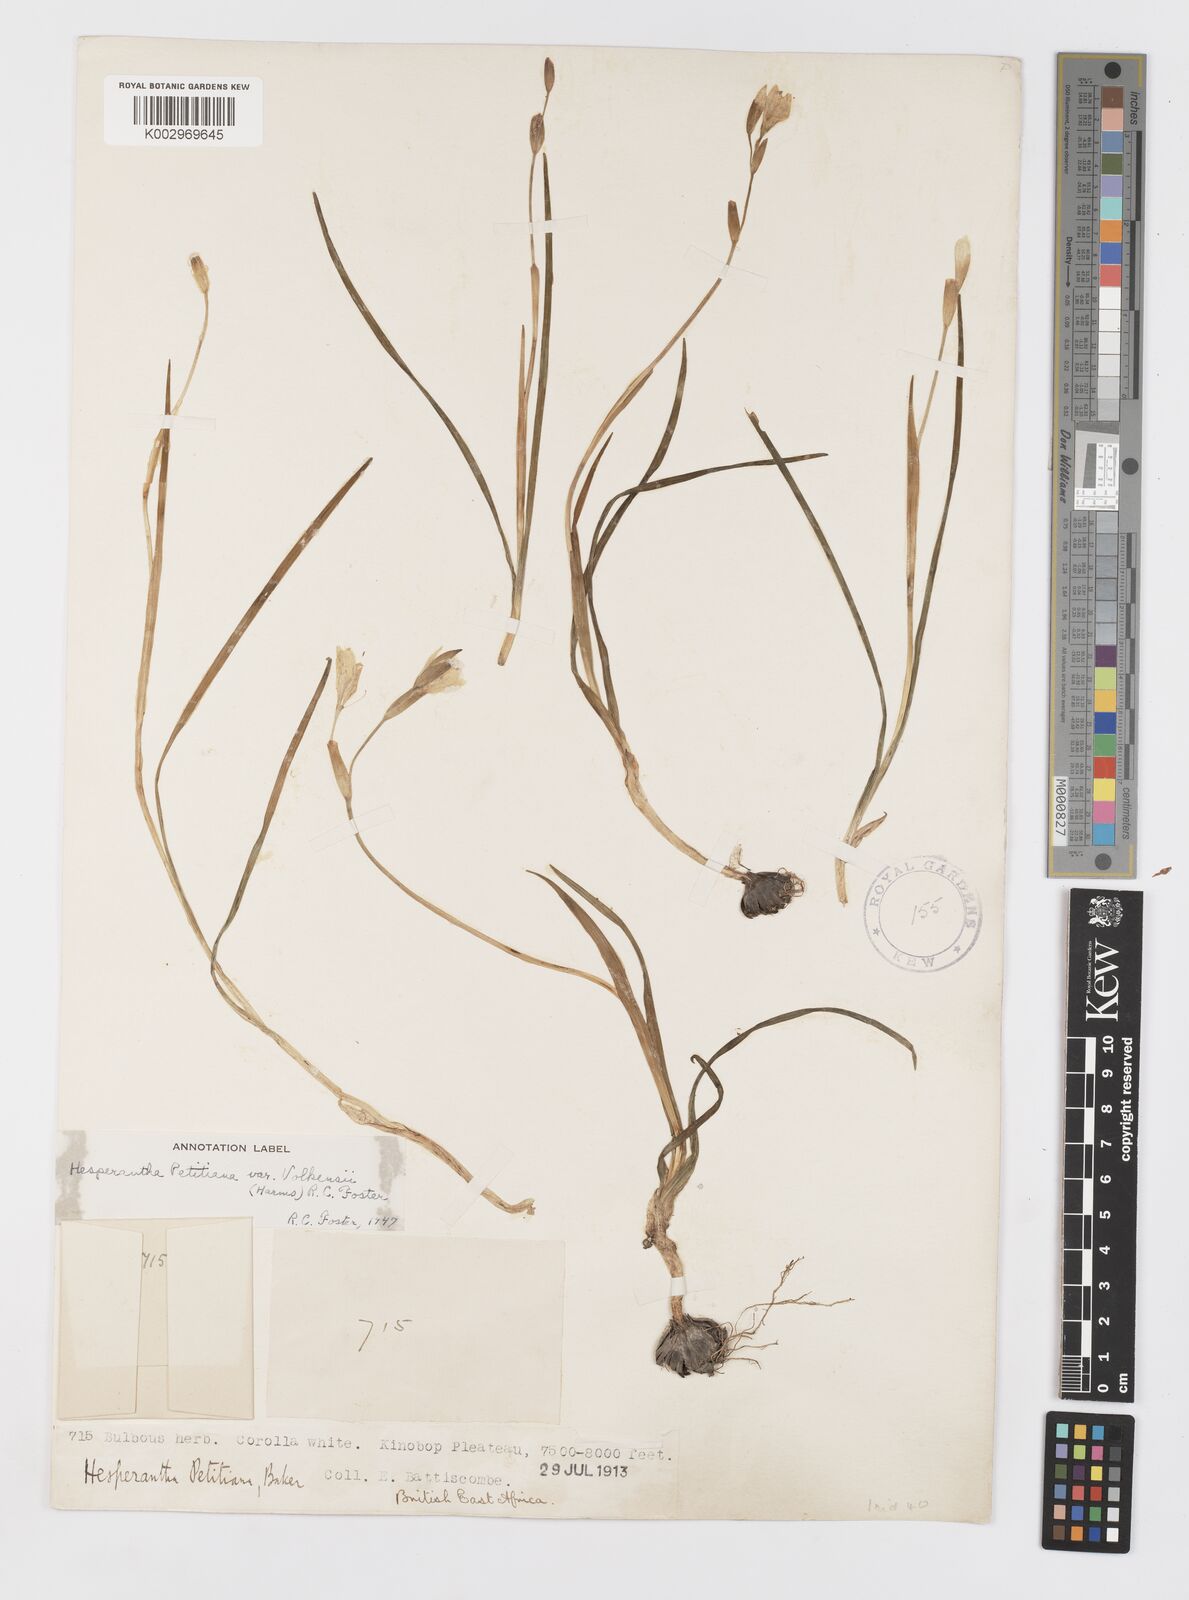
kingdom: Plantae
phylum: Tracheophyta
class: Liliopsida
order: Asparagales
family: Iridaceae
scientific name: Iridaceae
